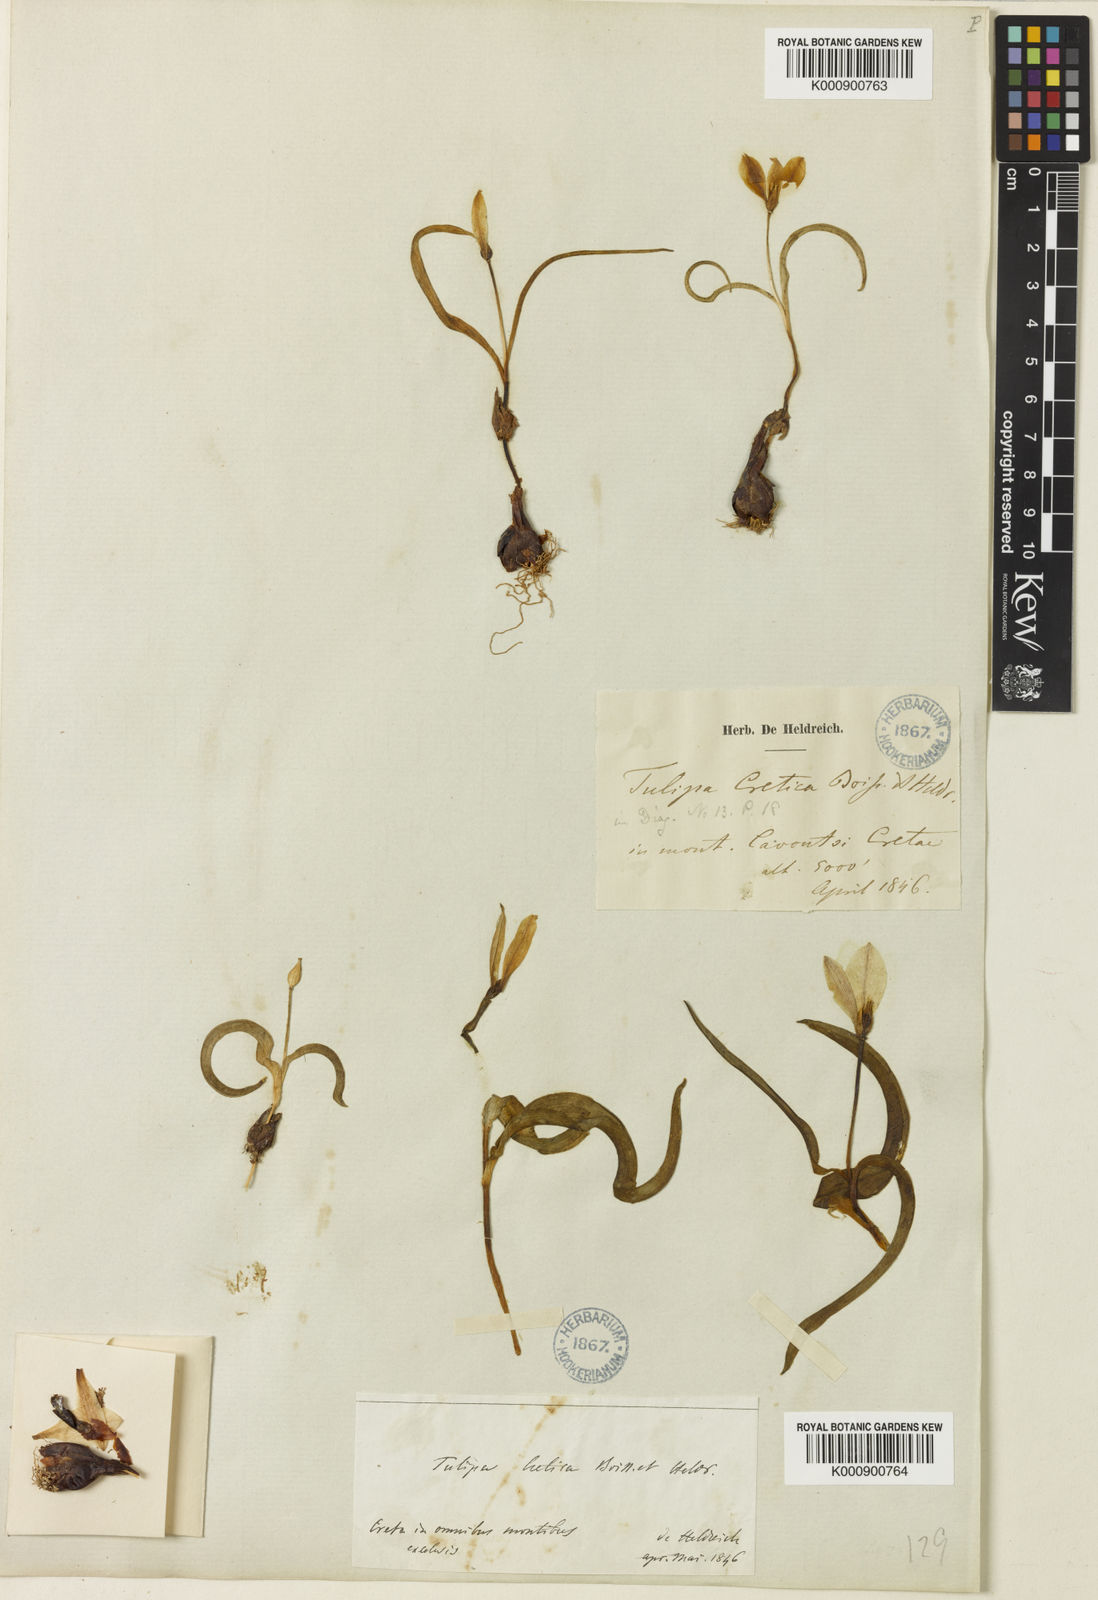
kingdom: Plantae
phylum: Tracheophyta
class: Liliopsida
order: Liliales
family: Liliaceae
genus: Tulipa
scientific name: Tulipa cretica
